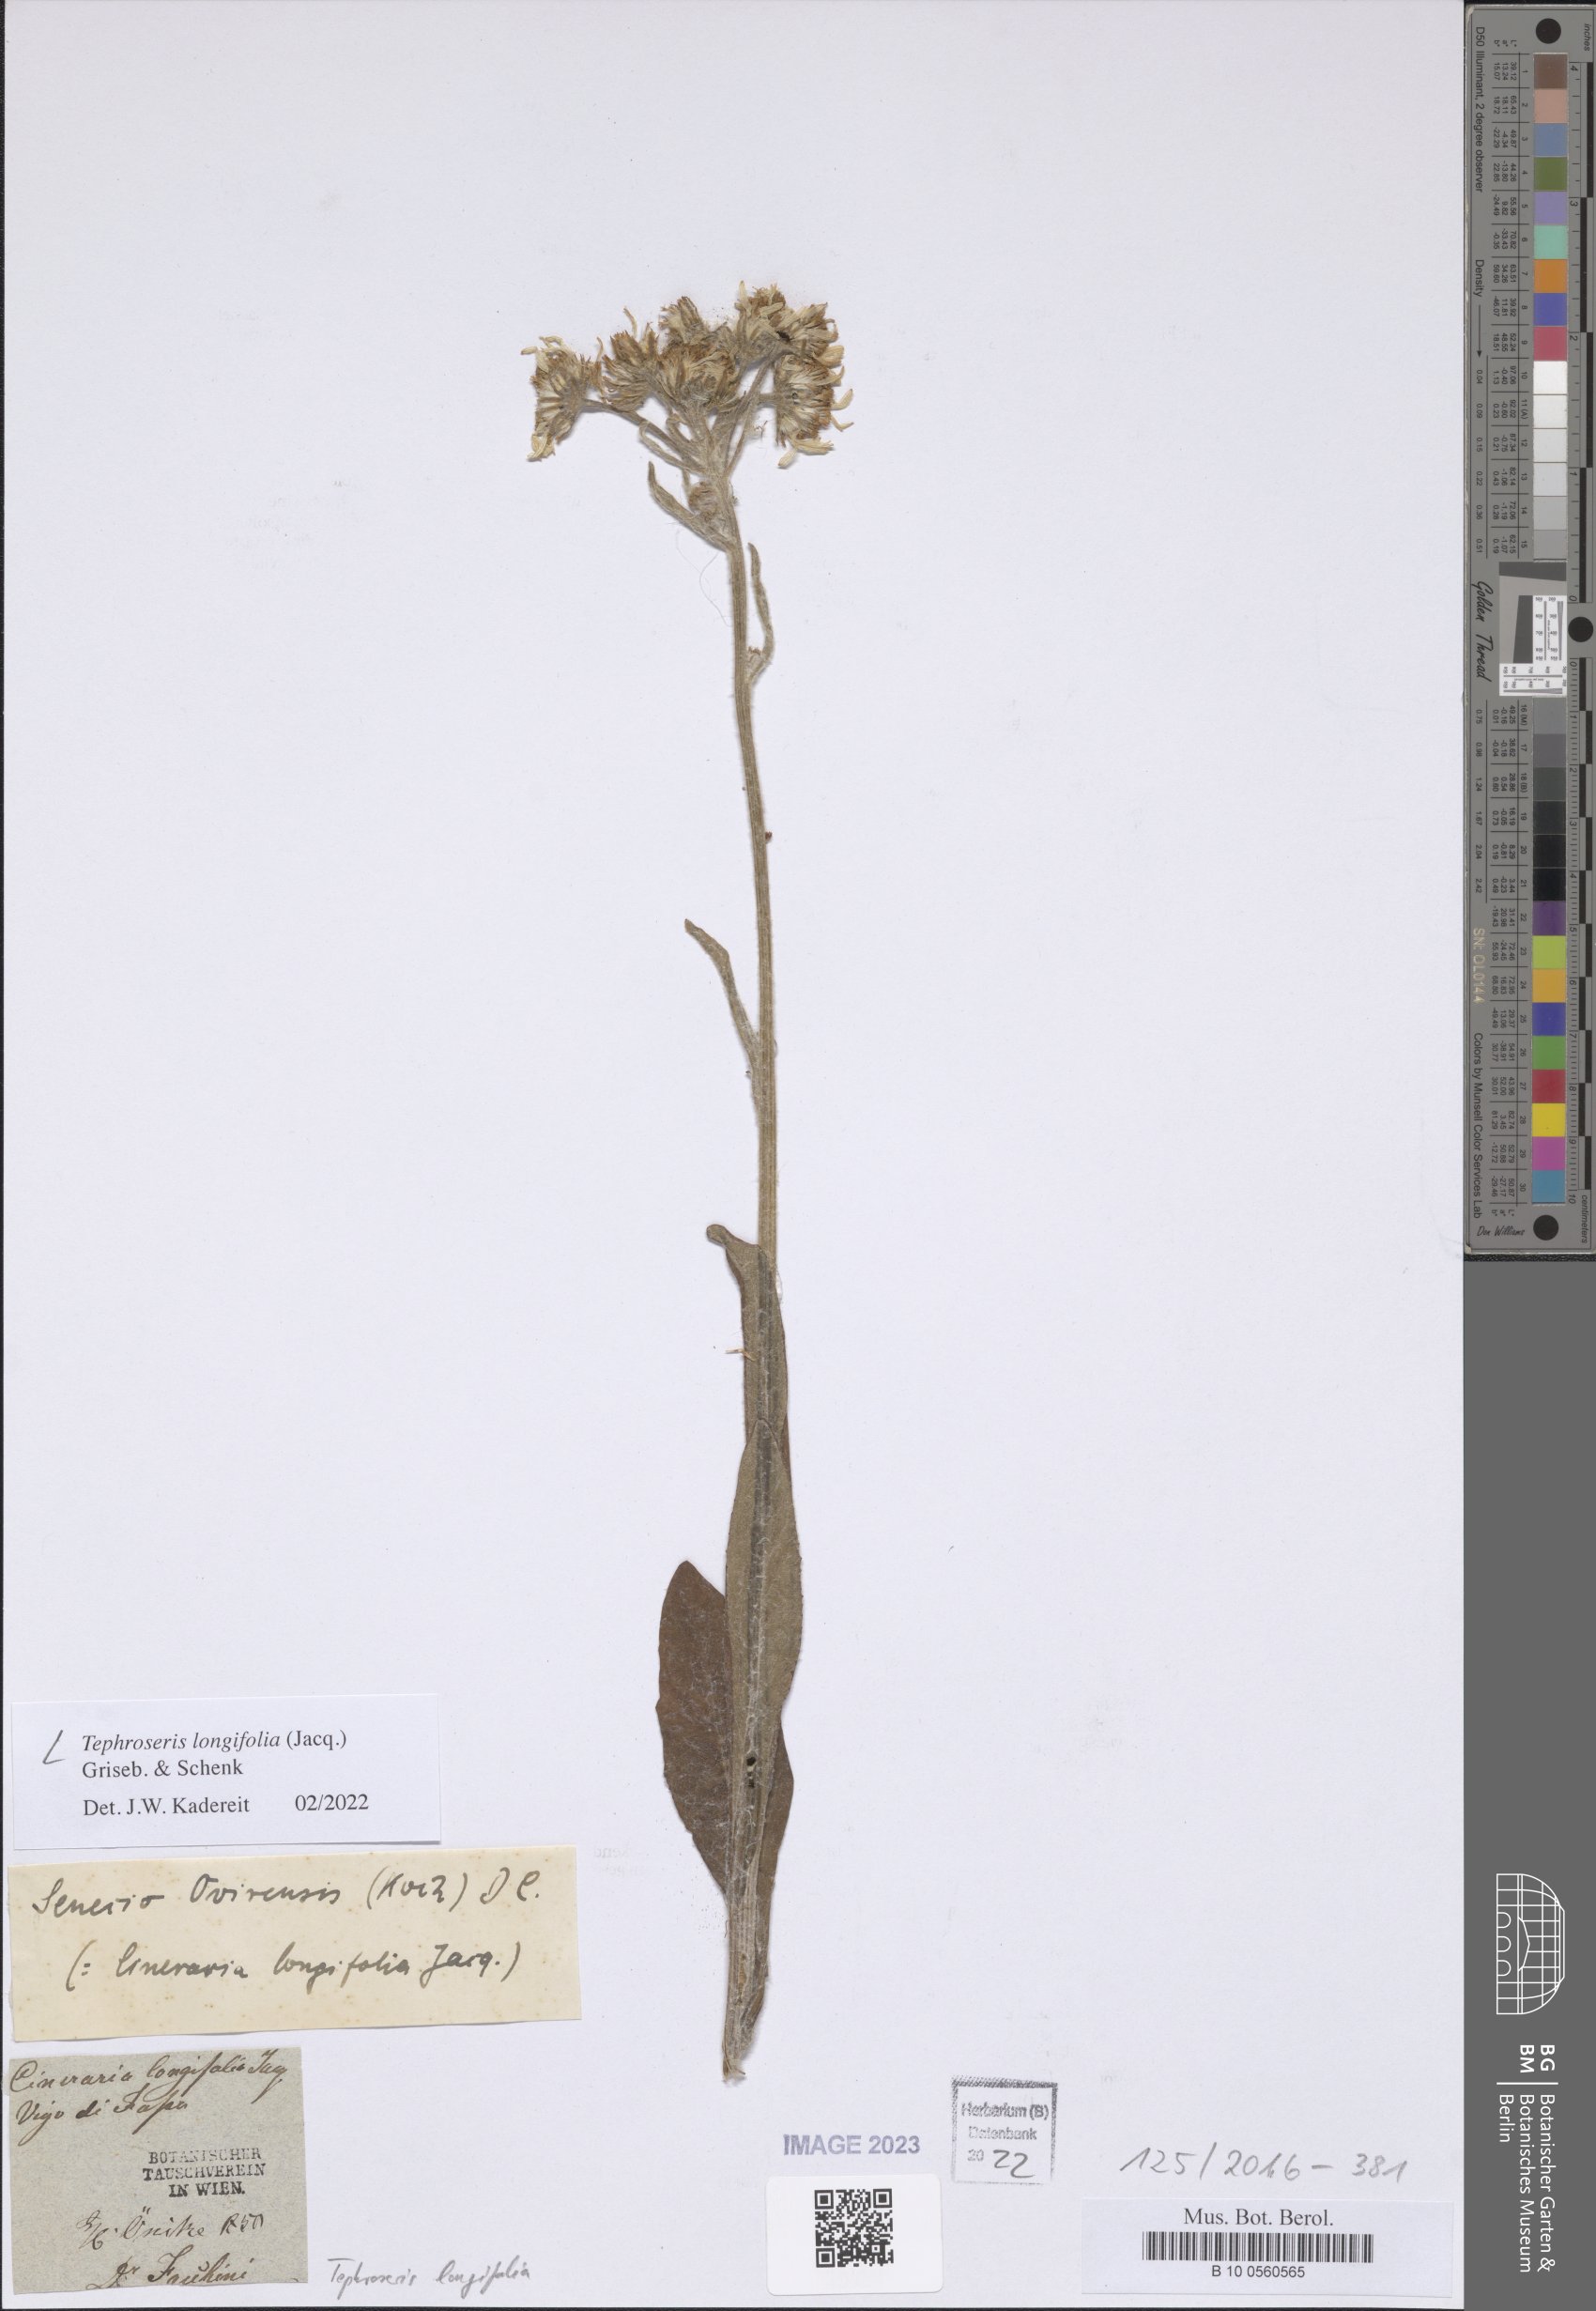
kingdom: Plantae
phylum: Tracheophyta
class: Magnoliopsida
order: Asterales
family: Asteraceae
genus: Tephroseris
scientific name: Tephroseris longifolia
